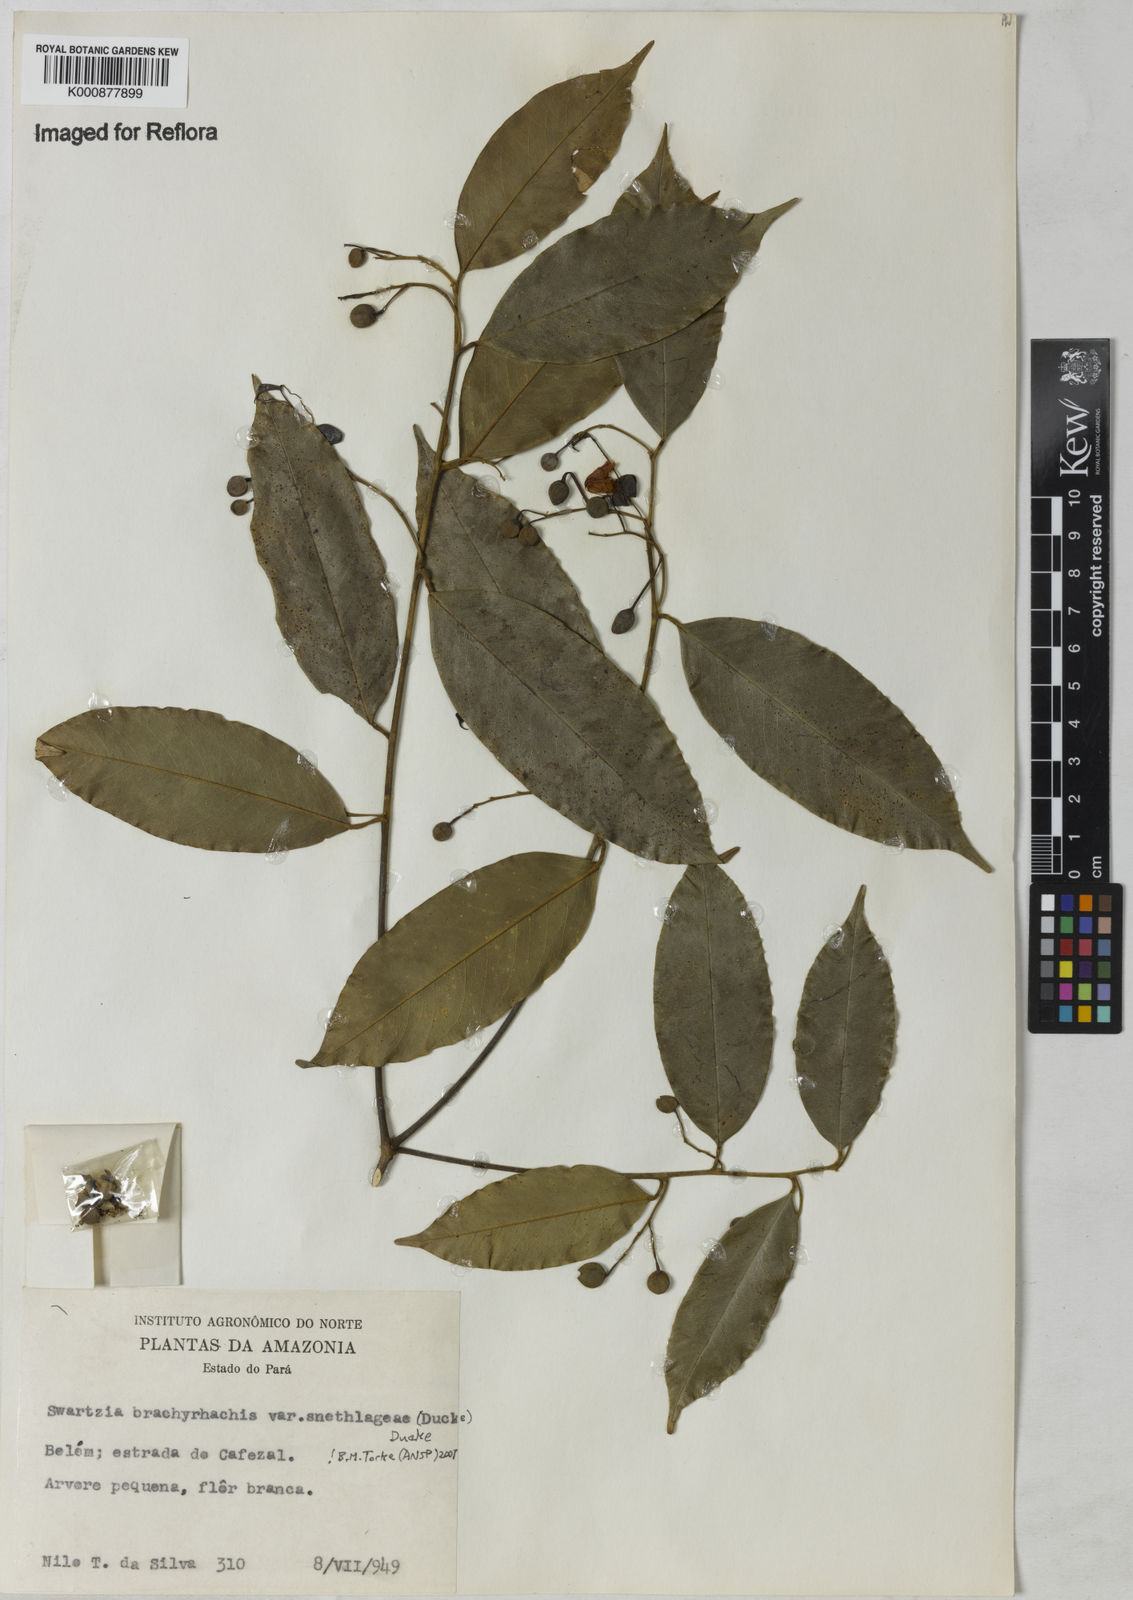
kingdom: Plantae
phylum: Tracheophyta
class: Magnoliopsida
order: Fabales
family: Fabaceae
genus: Swartzia
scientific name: Swartzia
